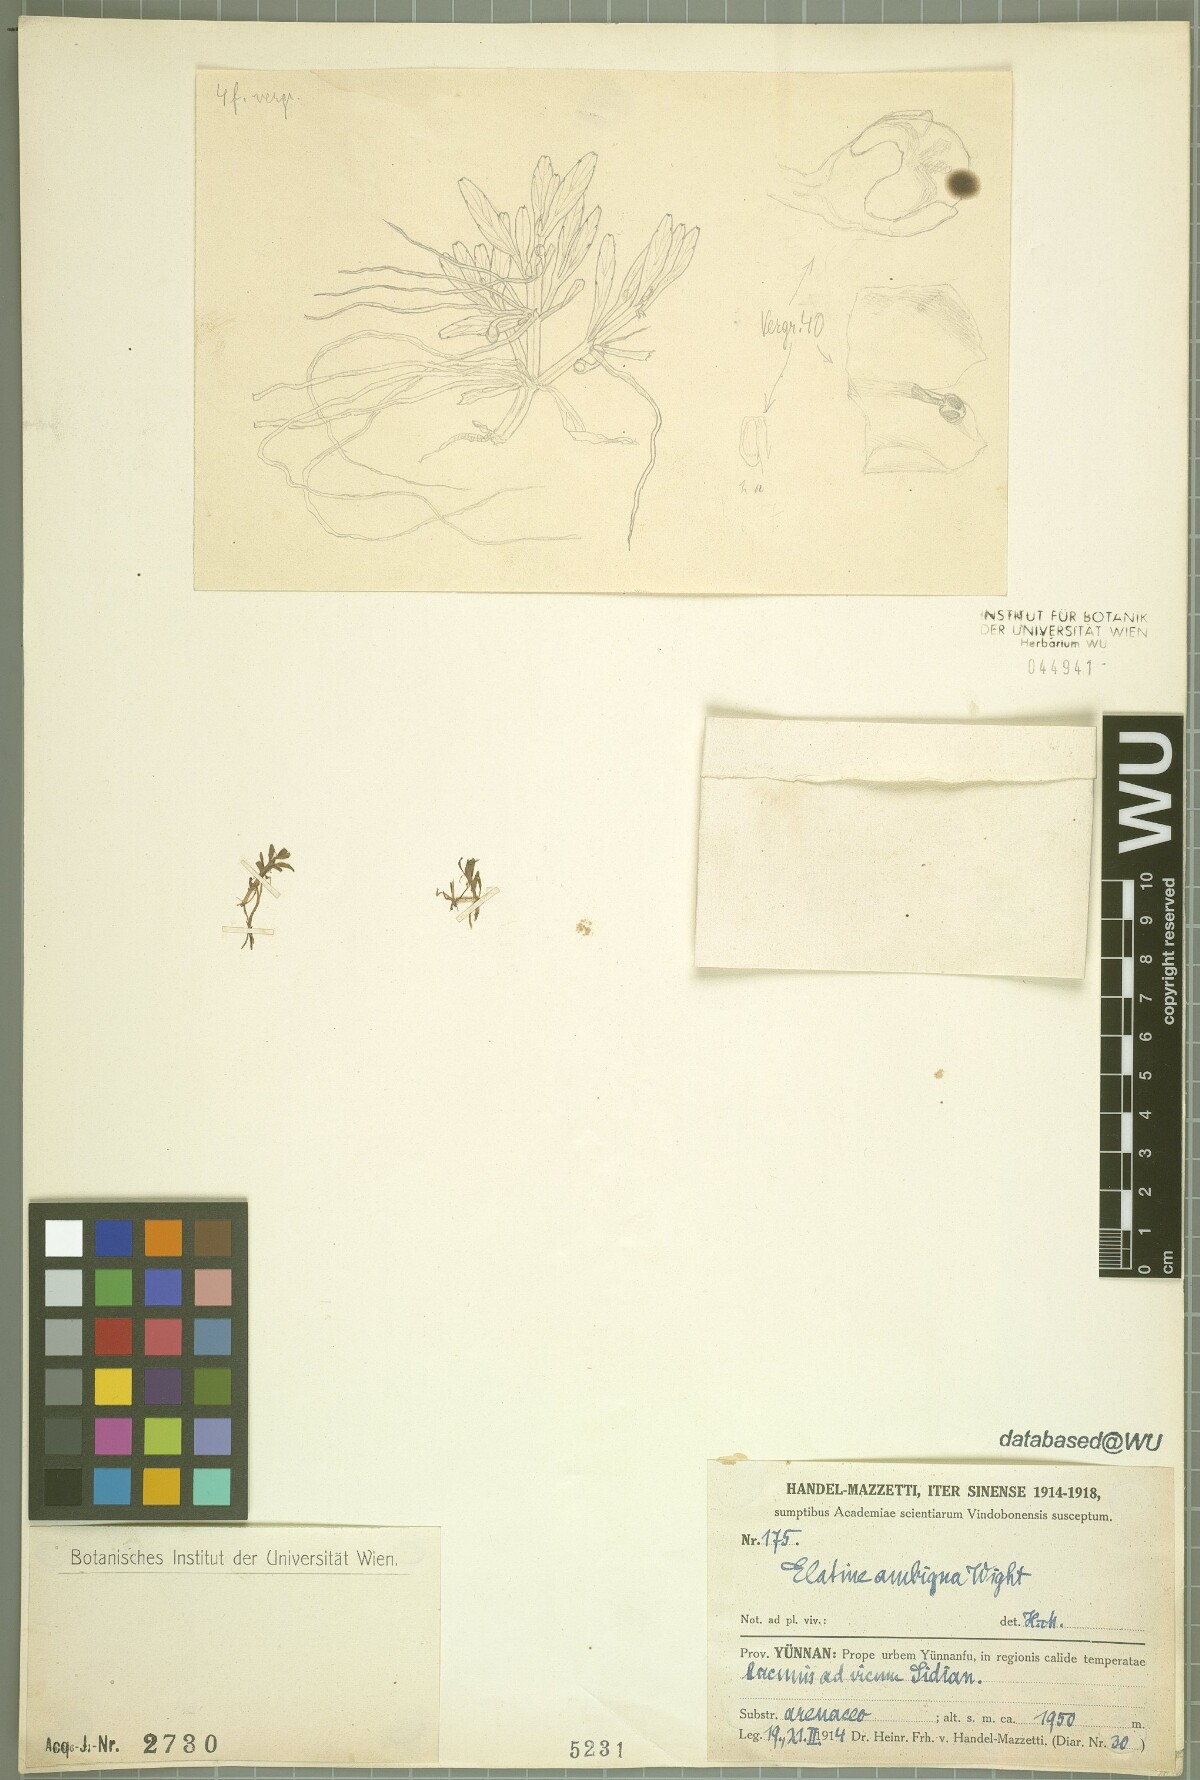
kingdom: Plantae
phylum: Tracheophyta
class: Magnoliopsida
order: Malpighiales
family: Elatinaceae
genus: Elatine
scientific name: Elatine ambigua
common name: Asian waterwort
